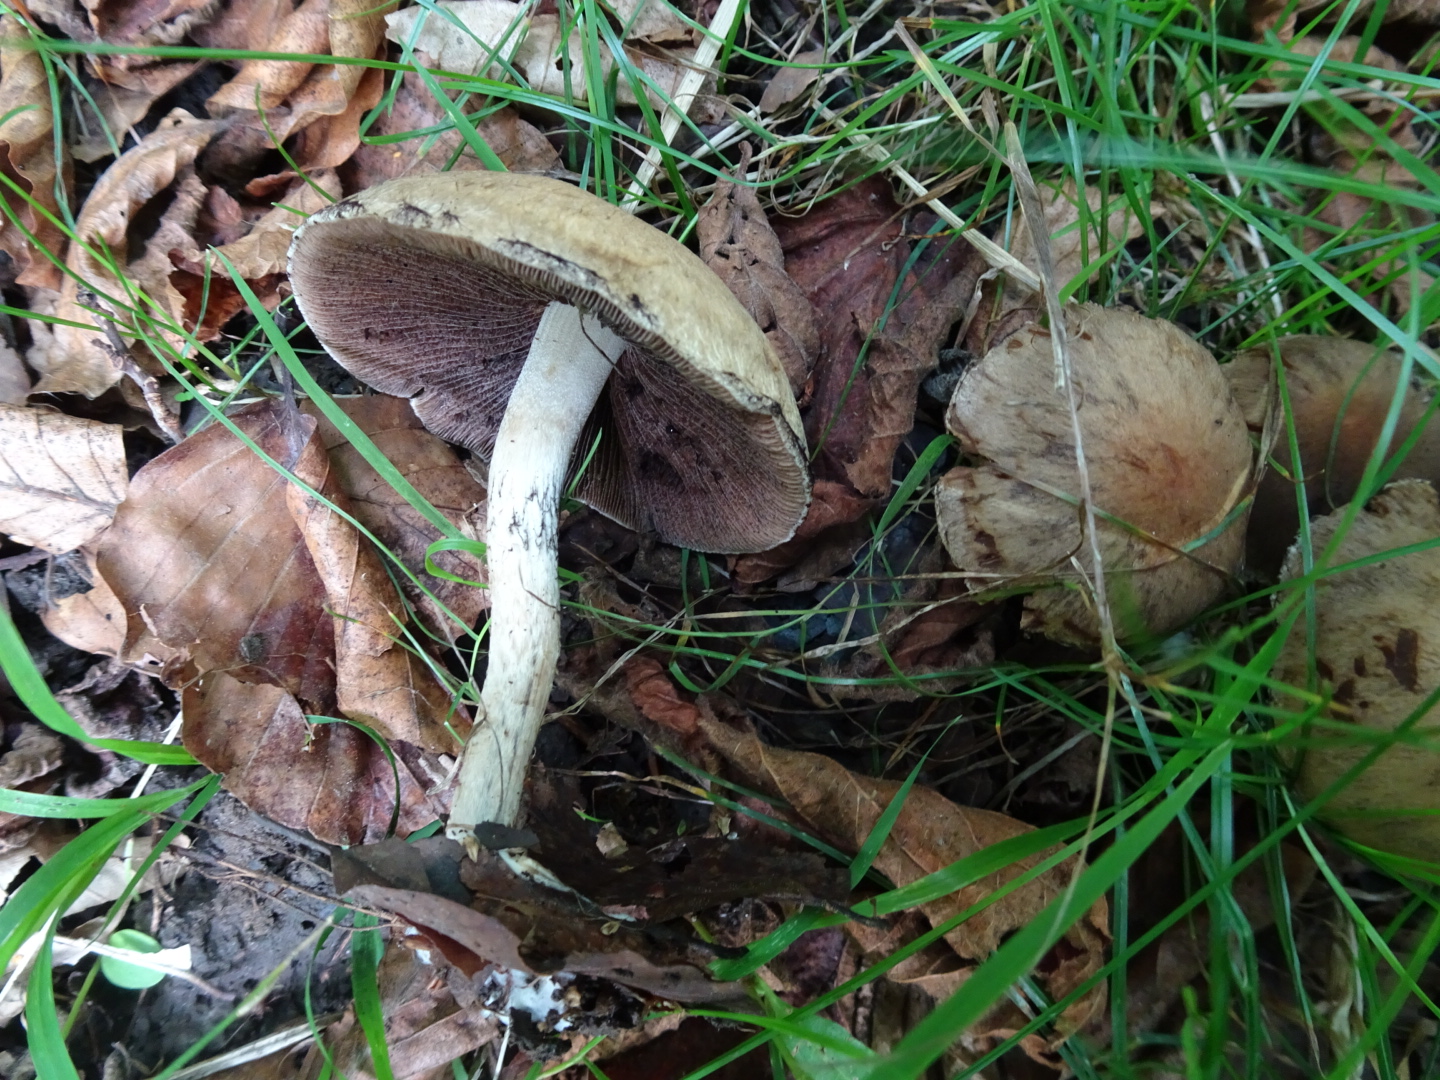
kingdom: Fungi
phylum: Basidiomycota
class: Agaricomycetes
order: Agaricales
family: Psathyrellaceae
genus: Lacrymaria
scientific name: Lacrymaria lacrymabunda
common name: grædende mørkhat
